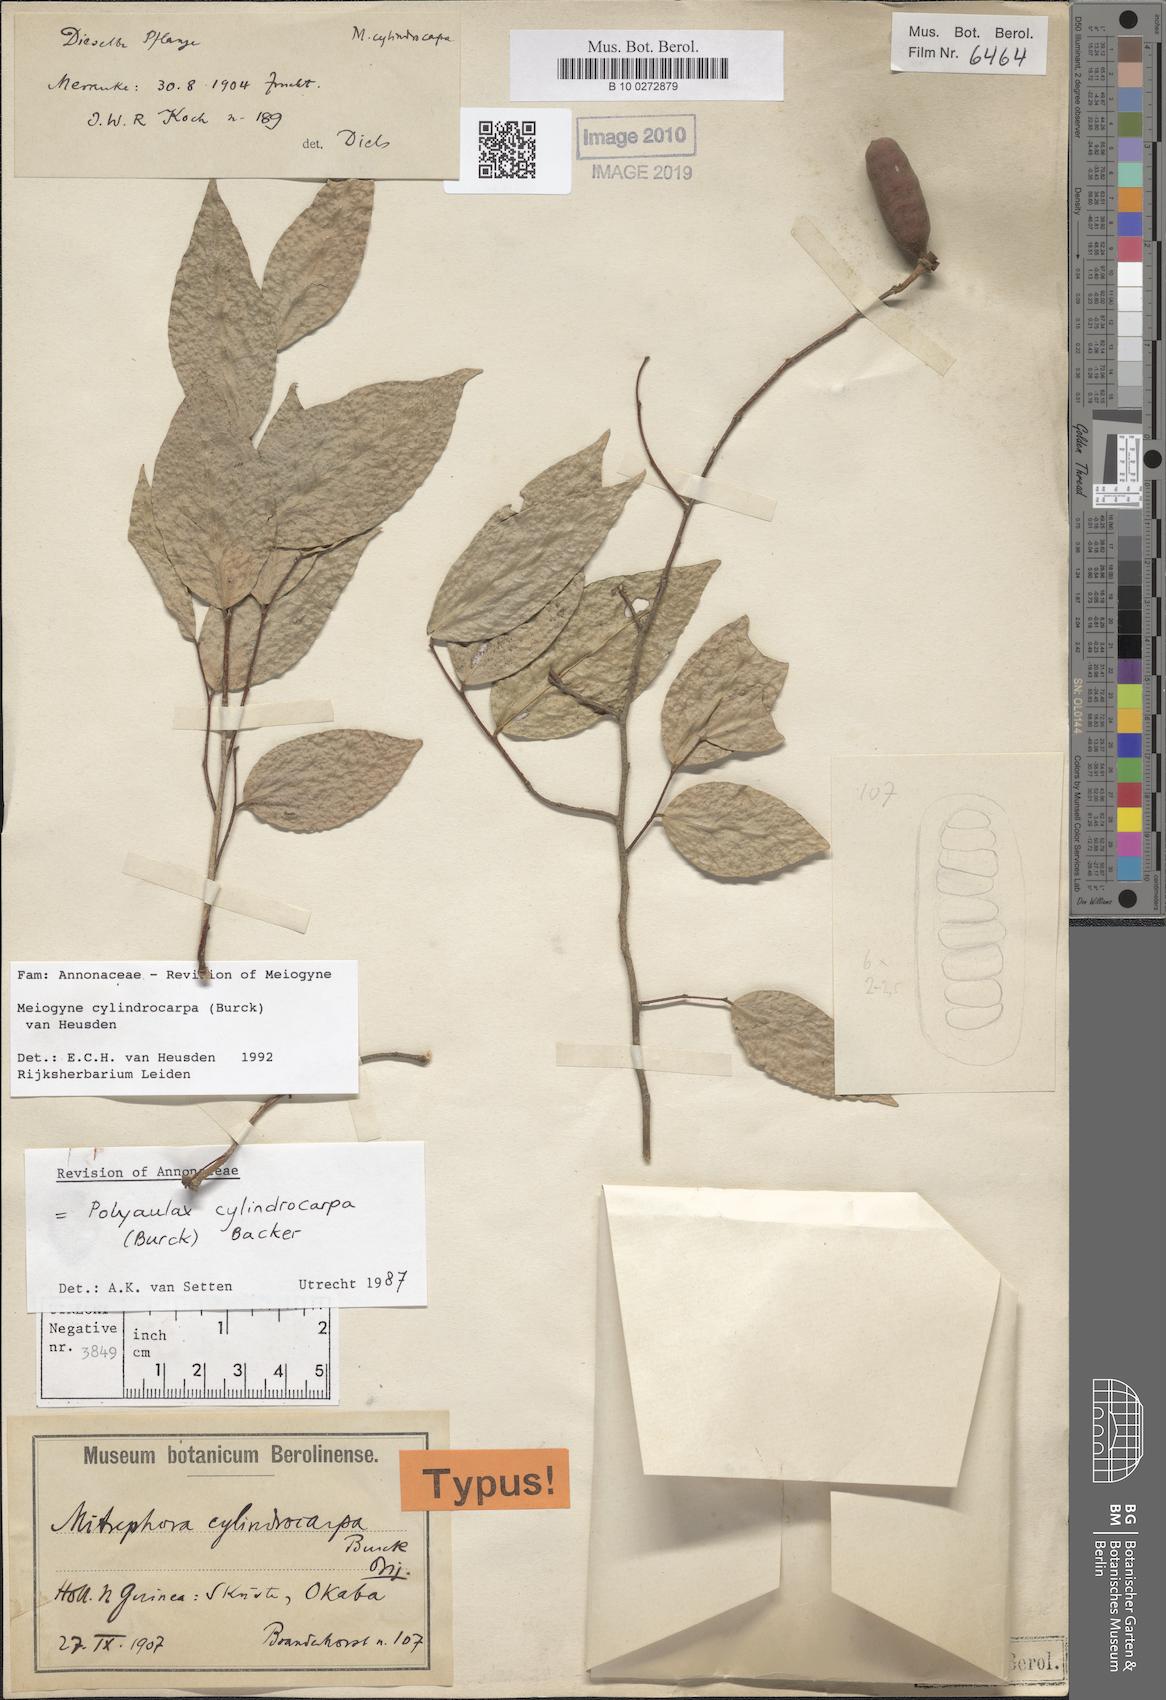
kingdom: Plantae
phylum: Tracheophyta
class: Magnoliopsida
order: Magnoliales
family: Annonaceae
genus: Meiogyne
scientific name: Meiogyne cylindrocarpa
